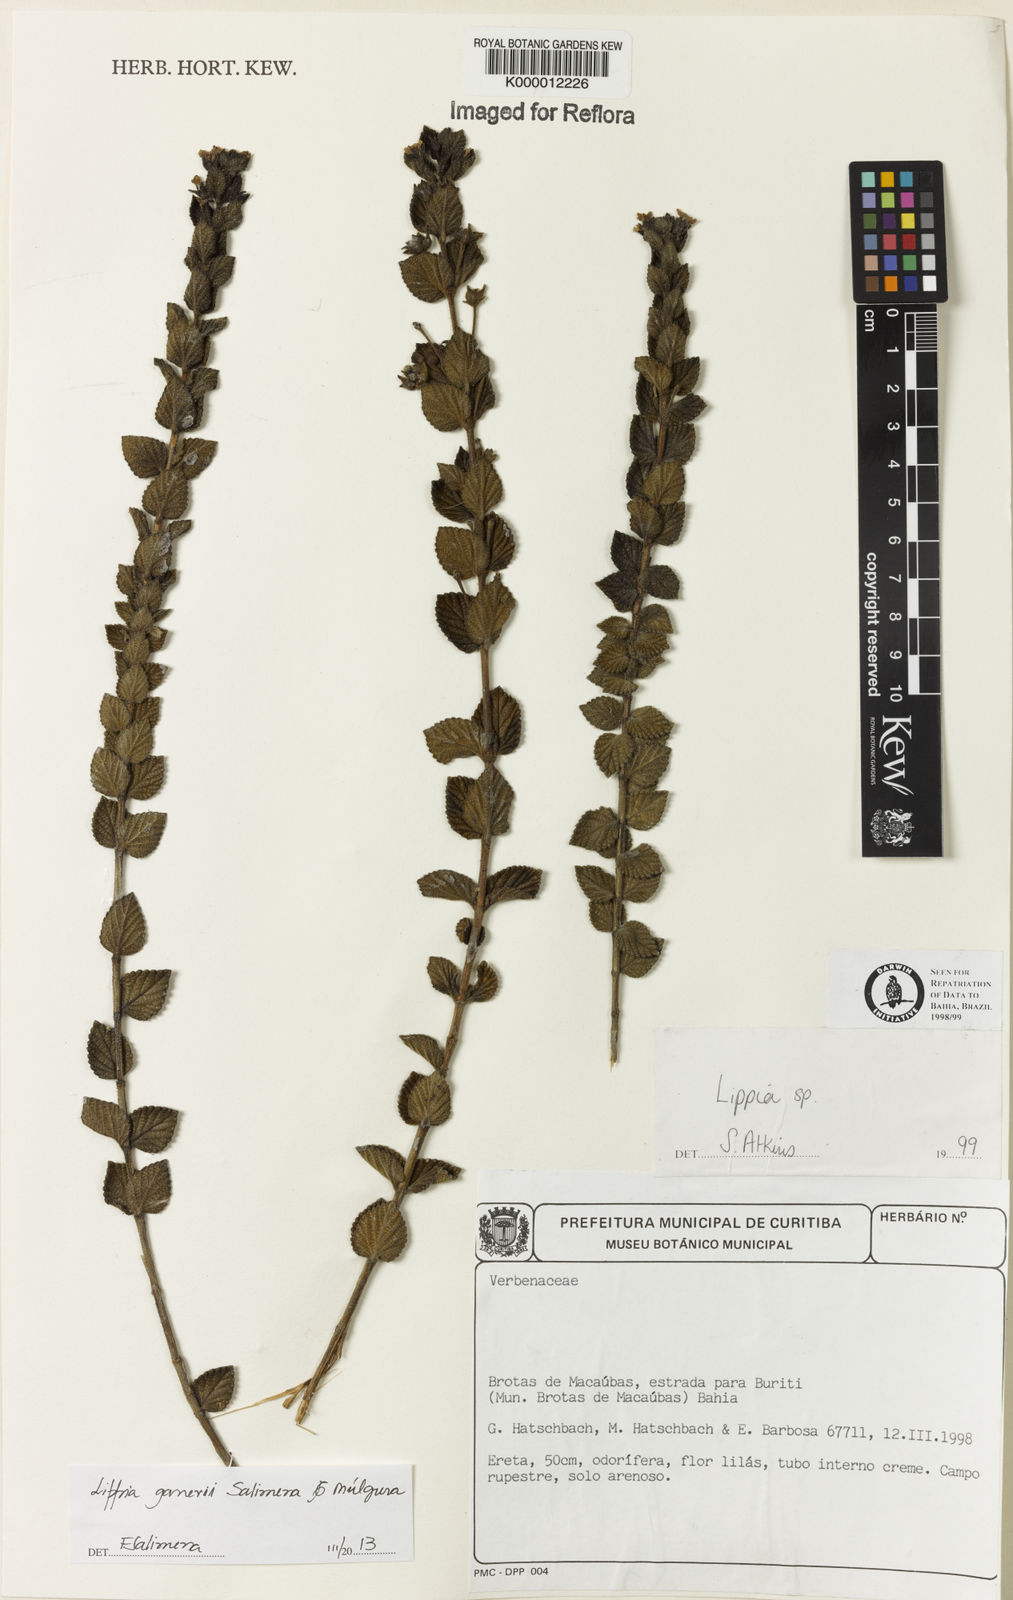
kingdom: Plantae
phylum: Tracheophyta
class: Magnoliopsida
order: Lamiales
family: Verbenaceae
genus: Lippia
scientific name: Lippia
